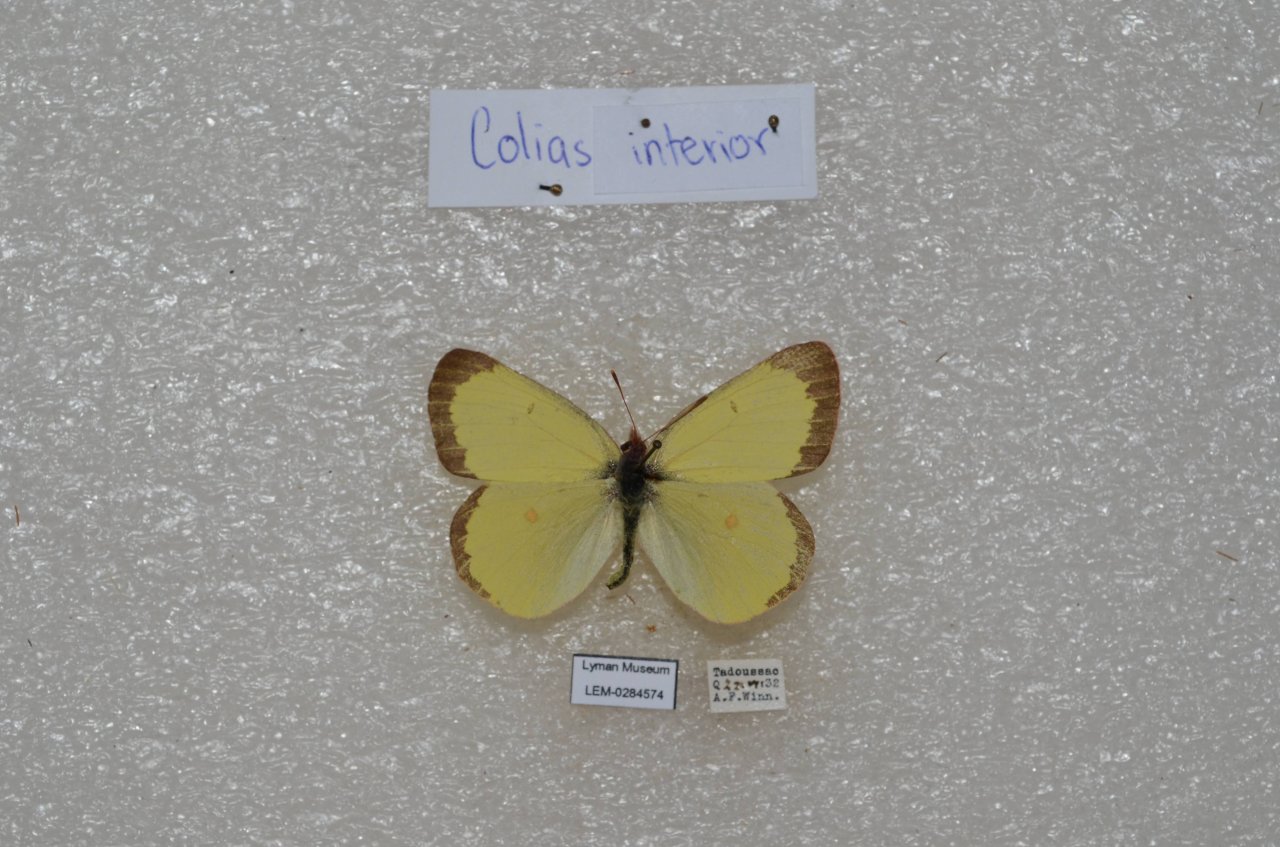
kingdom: Animalia
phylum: Arthropoda
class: Insecta
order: Lepidoptera
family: Pieridae
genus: Colias
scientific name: Colias interior
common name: Pink-edged Sulphur
